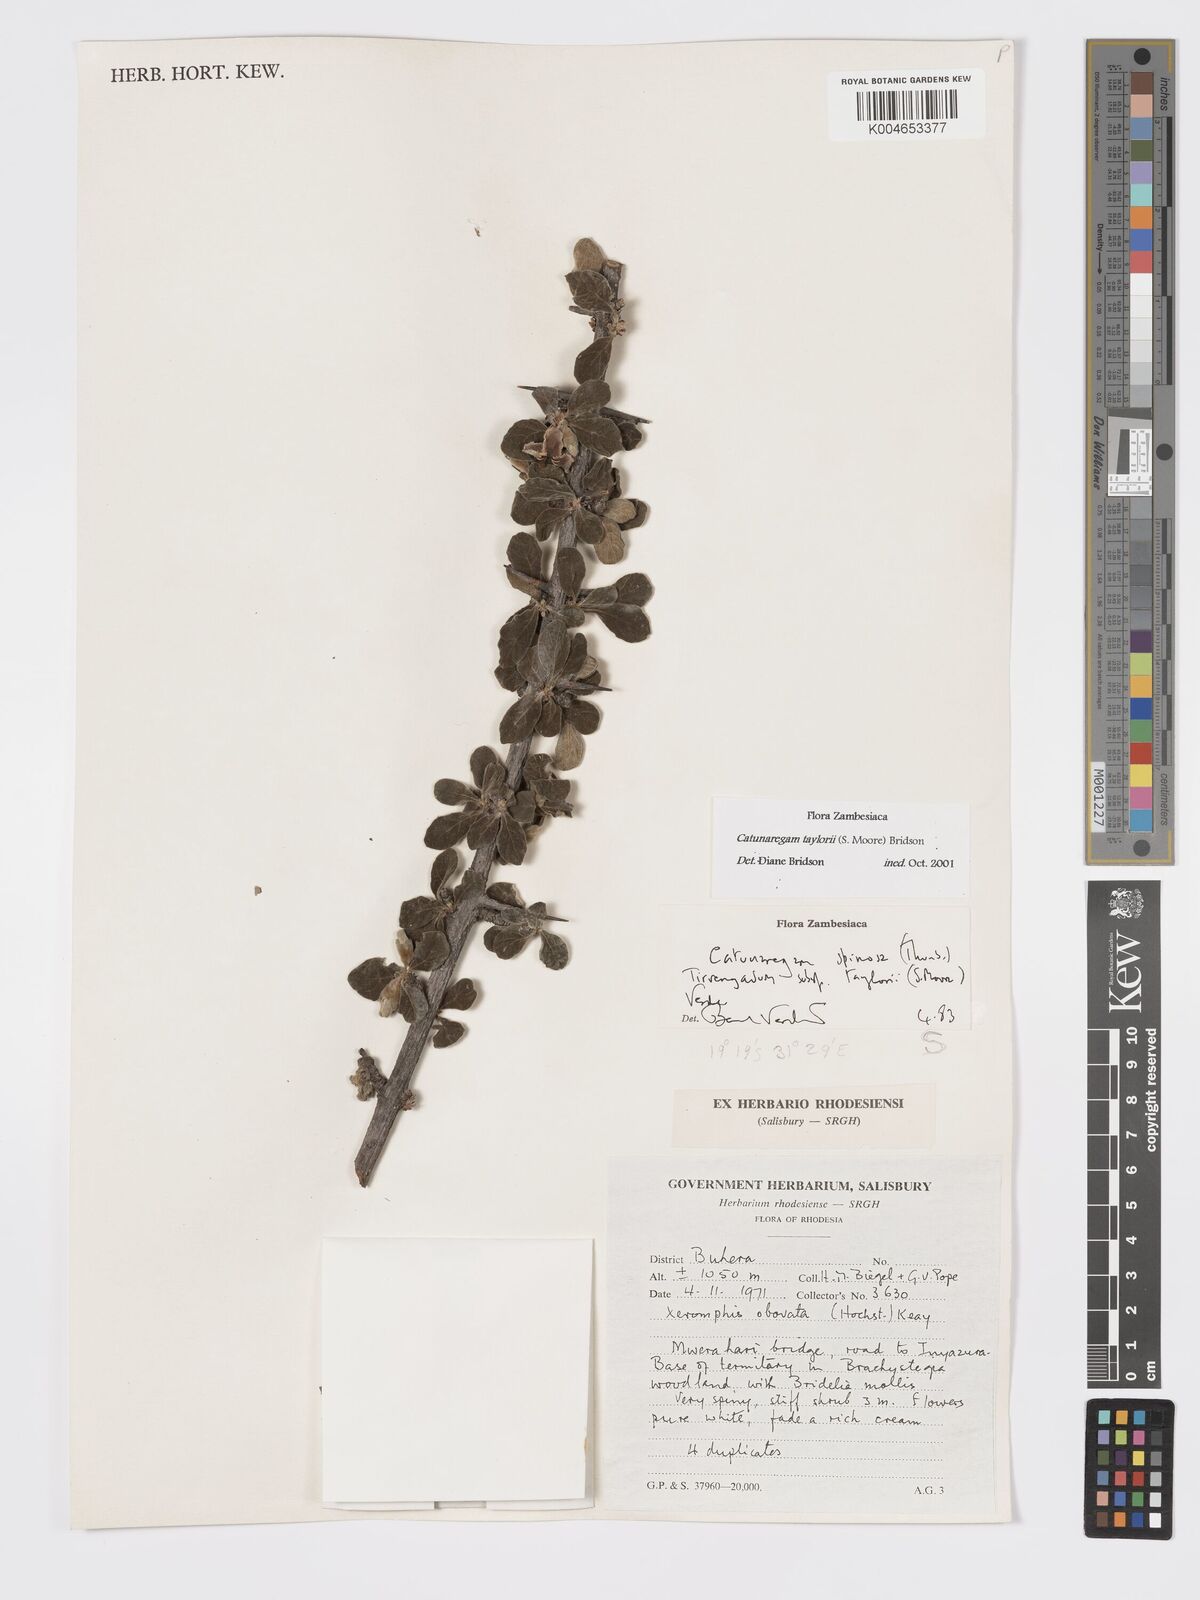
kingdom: Plantae
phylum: Tracheophyta
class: Magnoliopsida
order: Gentianales
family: Rubiaceae
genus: Catunaregam
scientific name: Catunaregam
